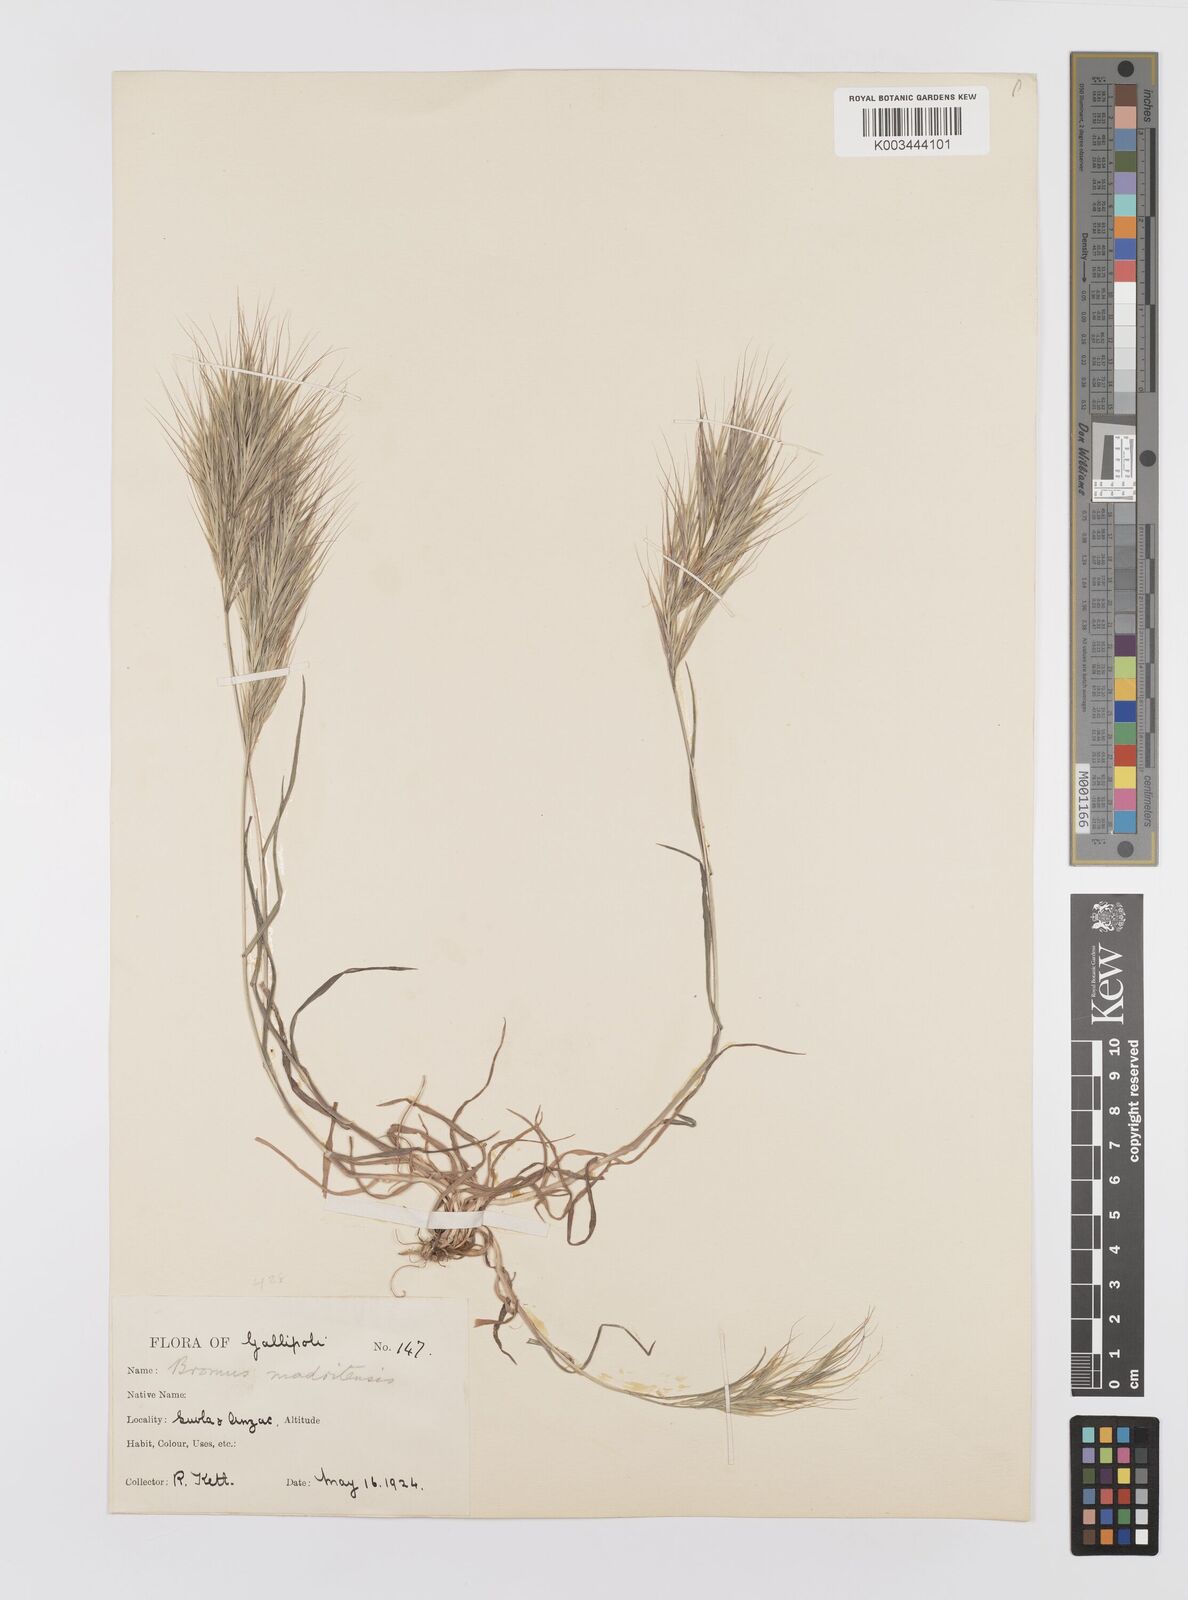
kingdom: Plantae
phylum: Tracheophyta
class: Liliopsida
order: Poales
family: Poaceae
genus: Bromus
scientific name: Bromus madritensis
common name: Compact brome
